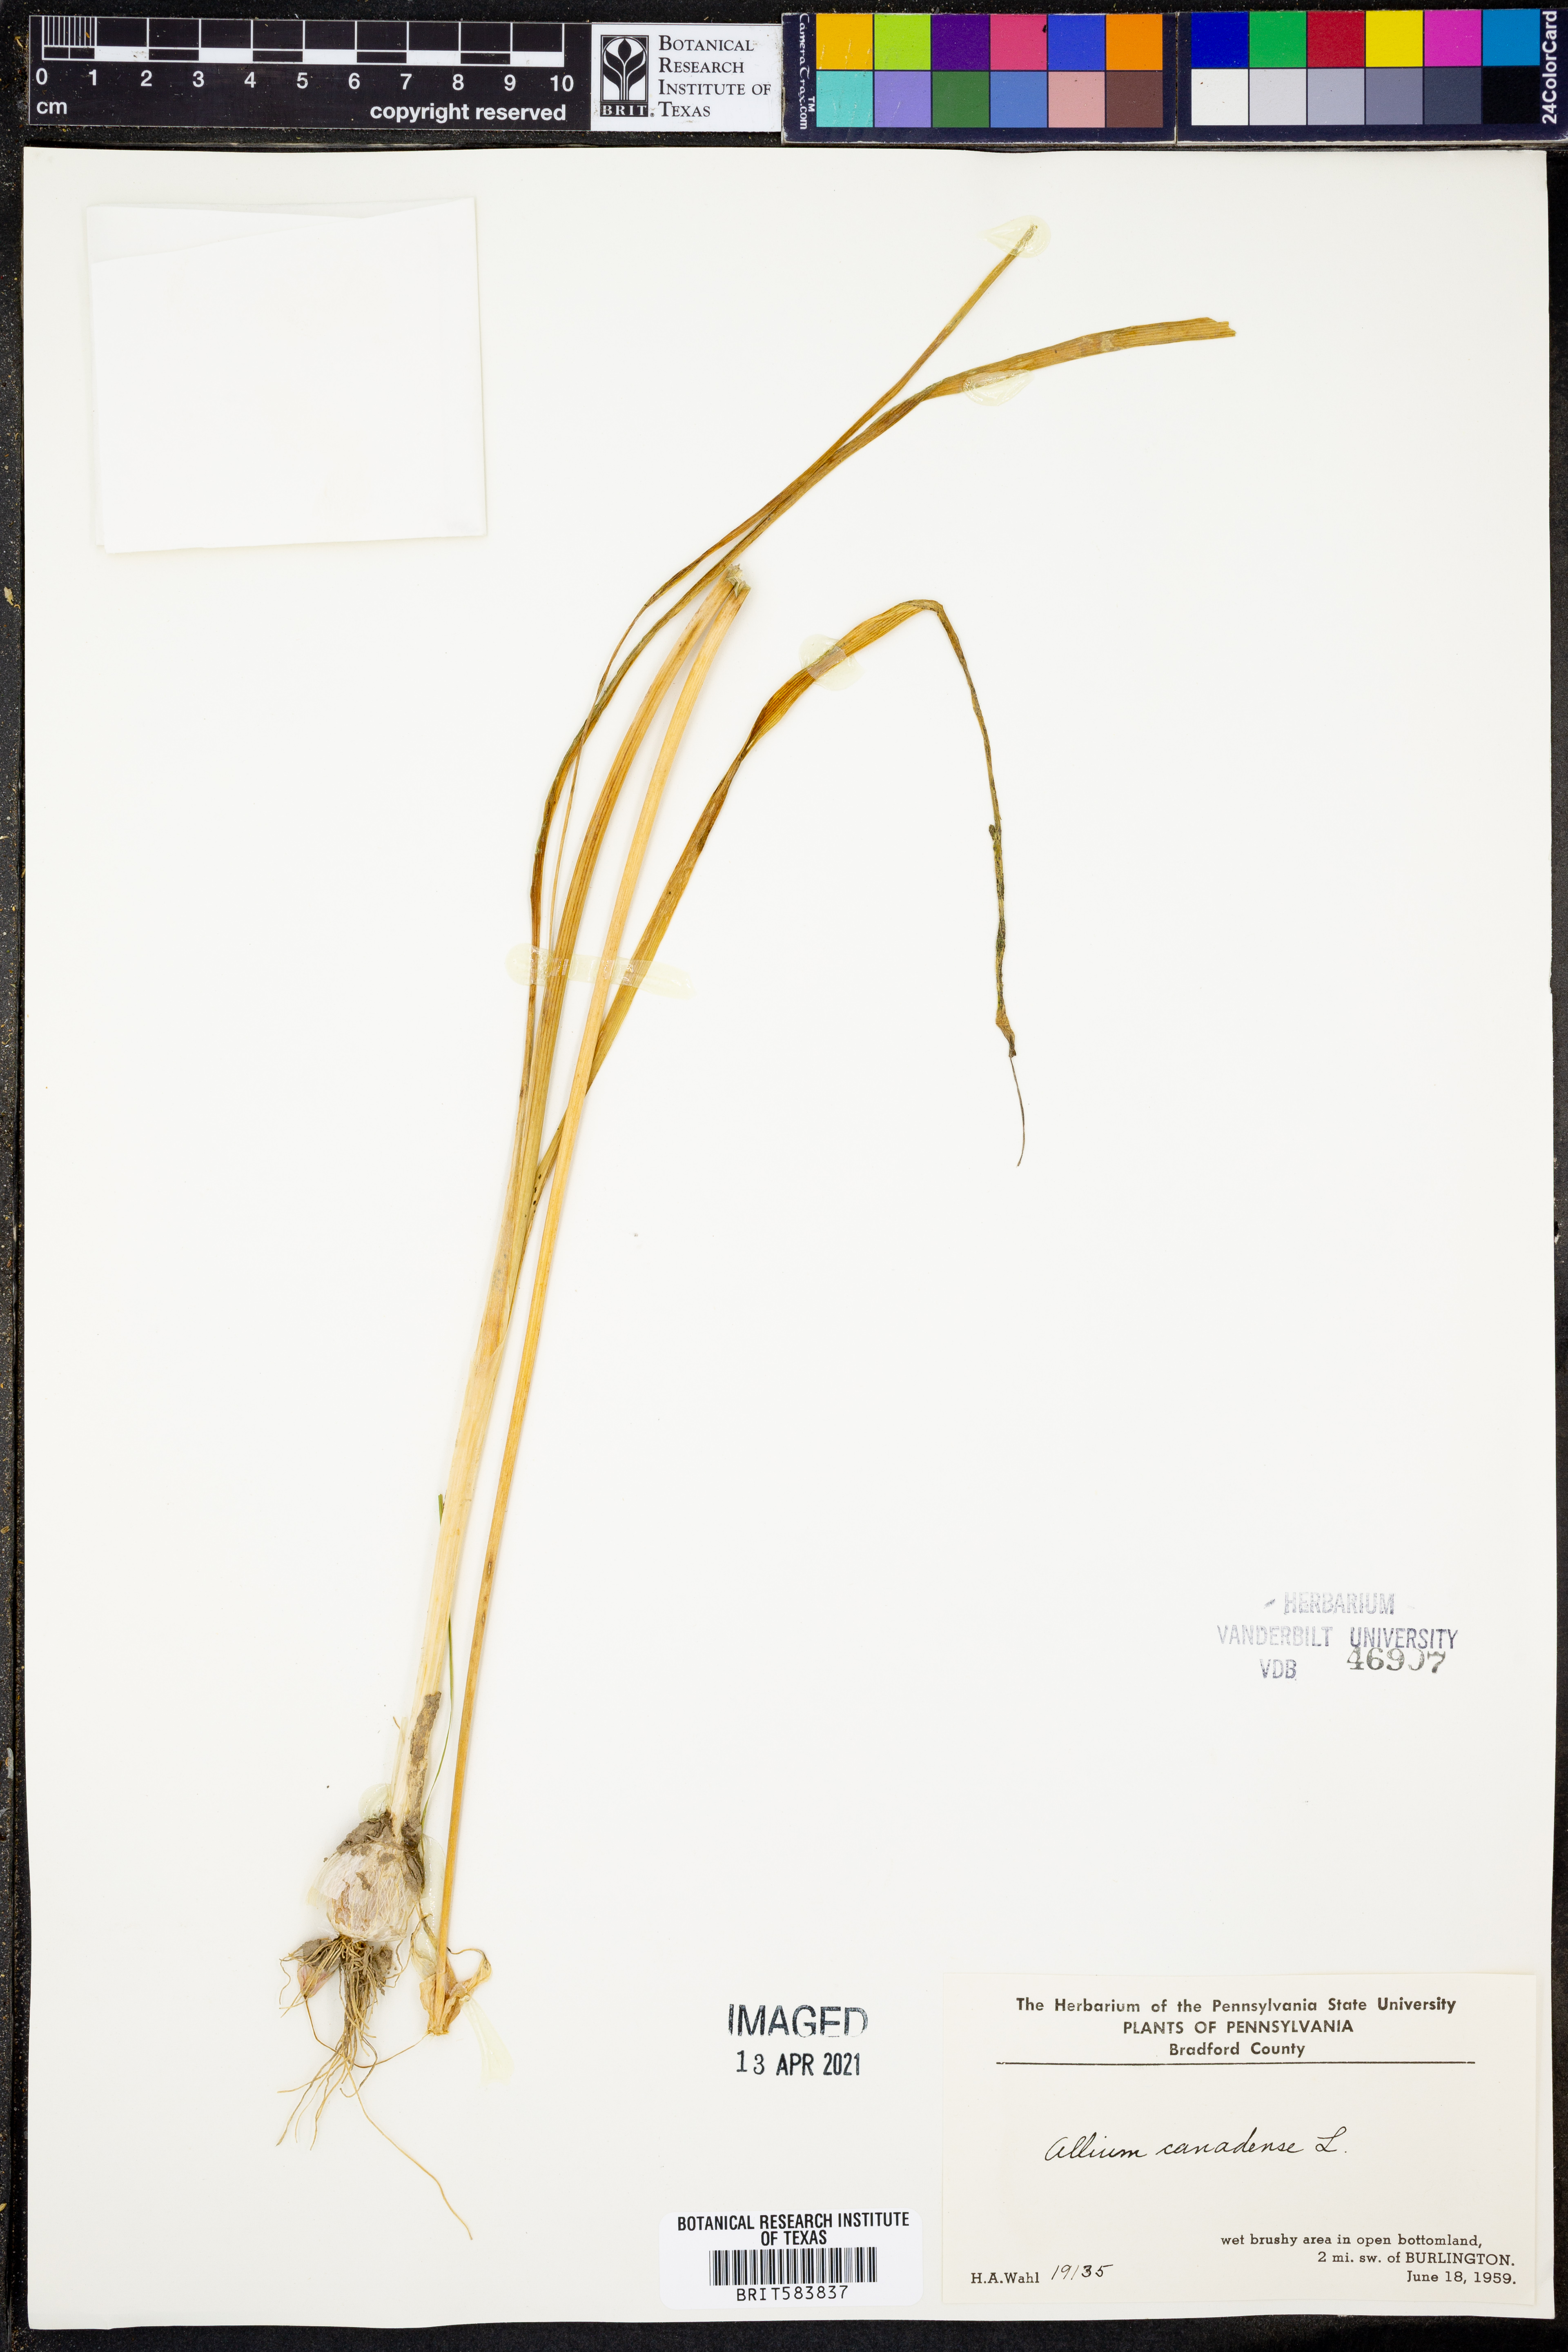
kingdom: Plantae
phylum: Tracheophyta
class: Liliopsida
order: Asparagales
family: Amaryllidaceae
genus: Allium
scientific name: Allium canadense
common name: Meadow garlic
